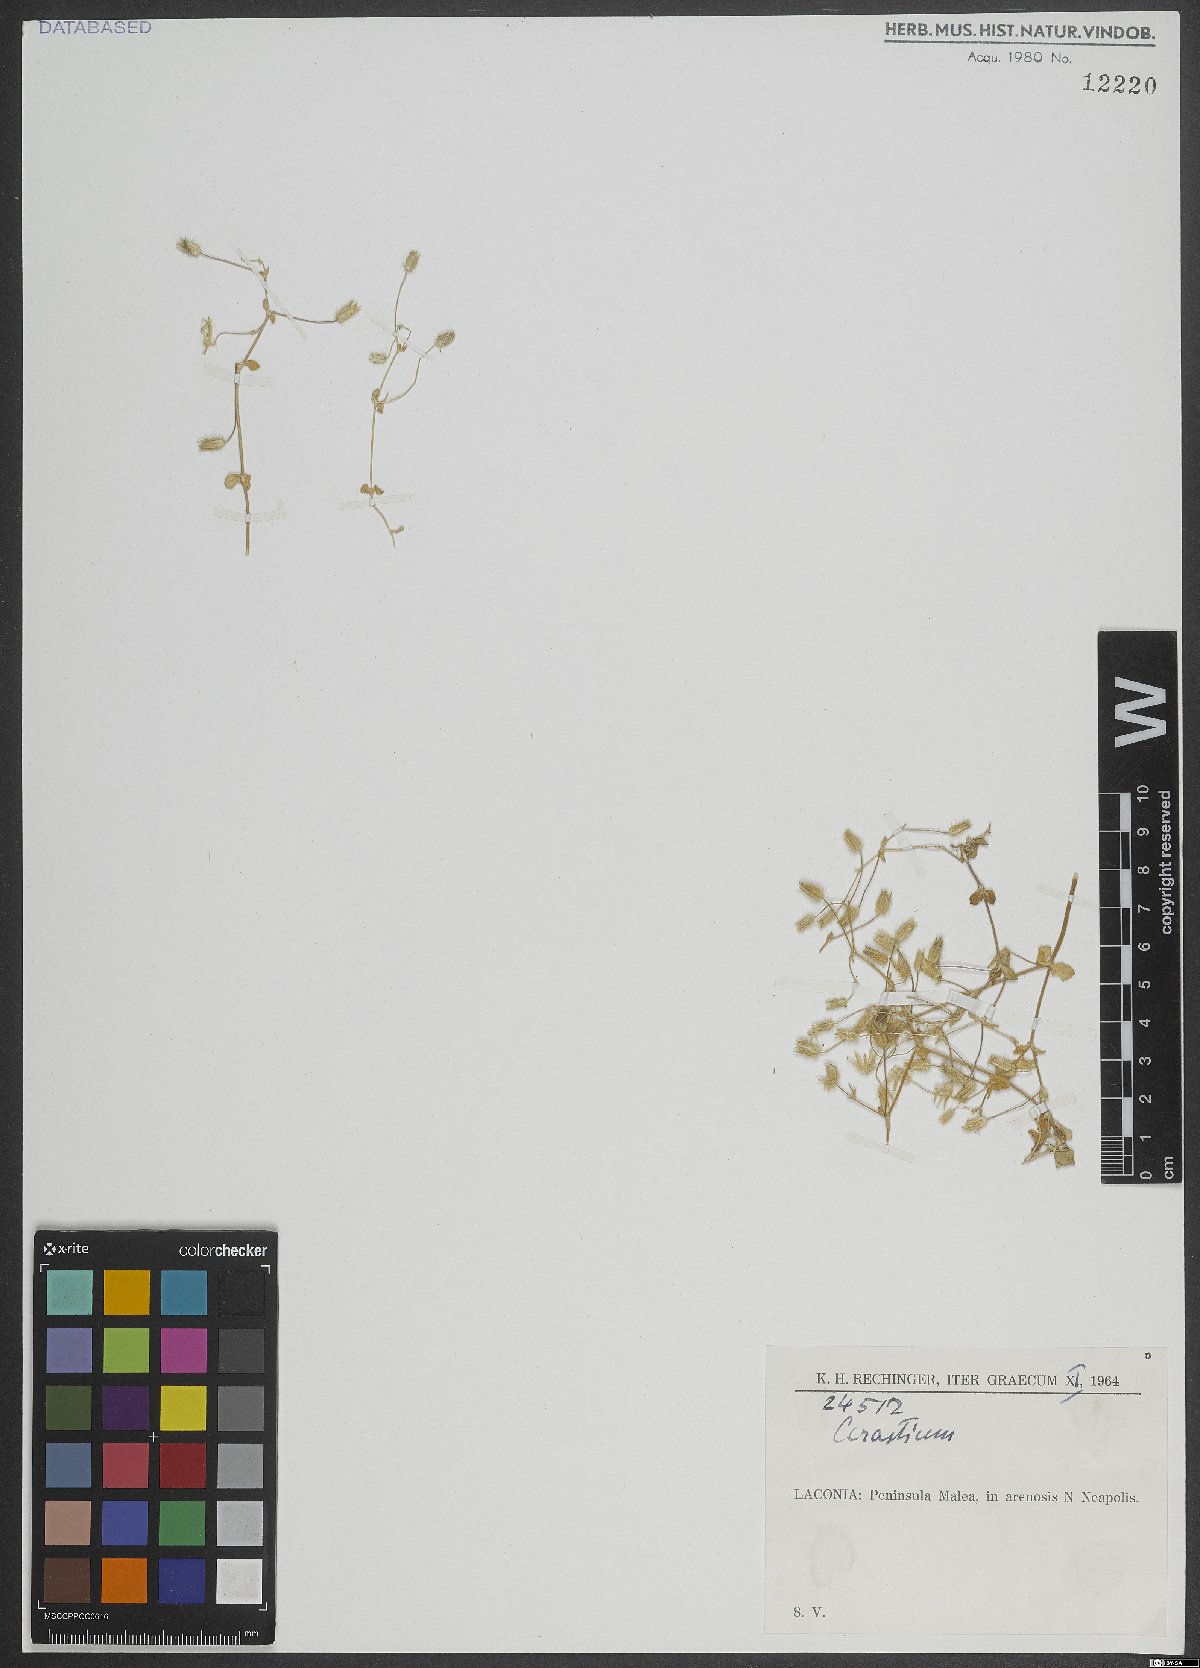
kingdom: Plantae
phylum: Tracheophyta
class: Magnoliopsida
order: Caryophyllales
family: Caryophyllaceae
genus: Cerastium
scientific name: Cerastium
